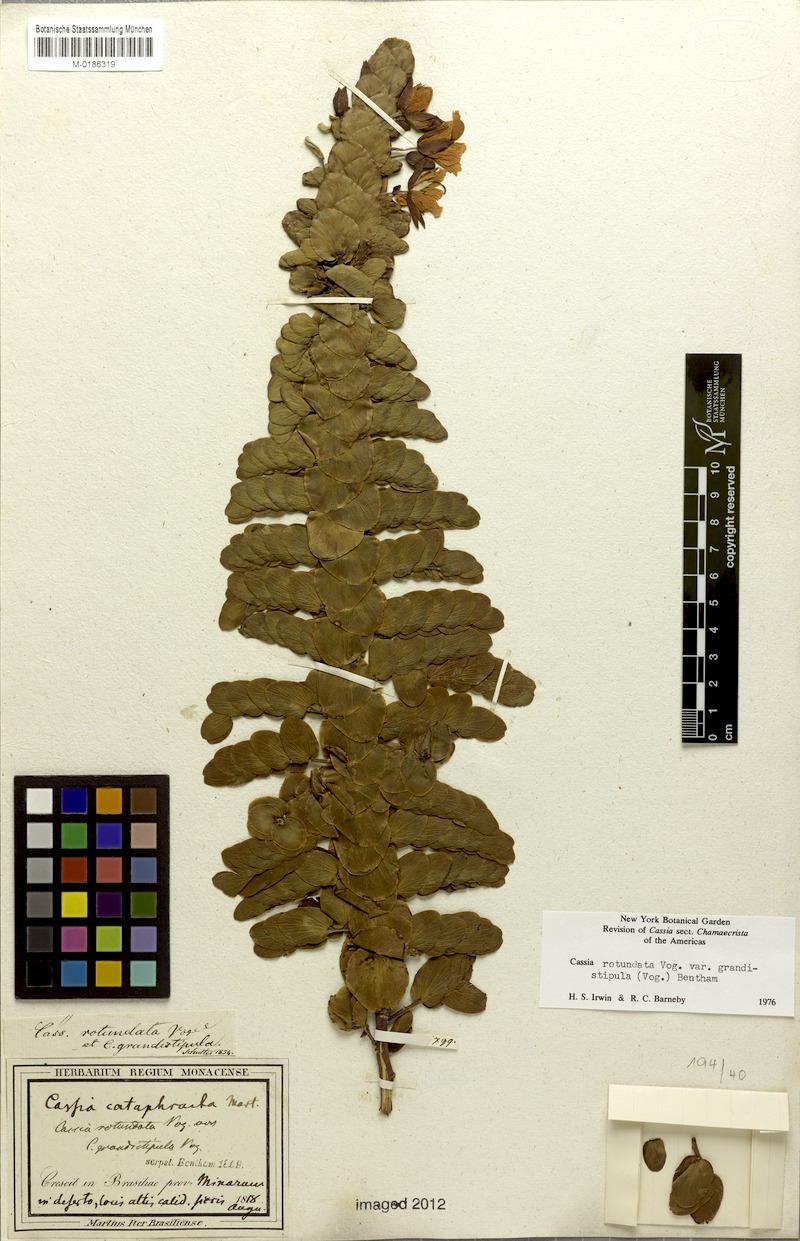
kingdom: Plantae
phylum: Tracheophyta
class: Magnoliopsida
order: Fabales
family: Fabaceae
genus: Chamaecrista
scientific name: Chamaecrista rotundata
